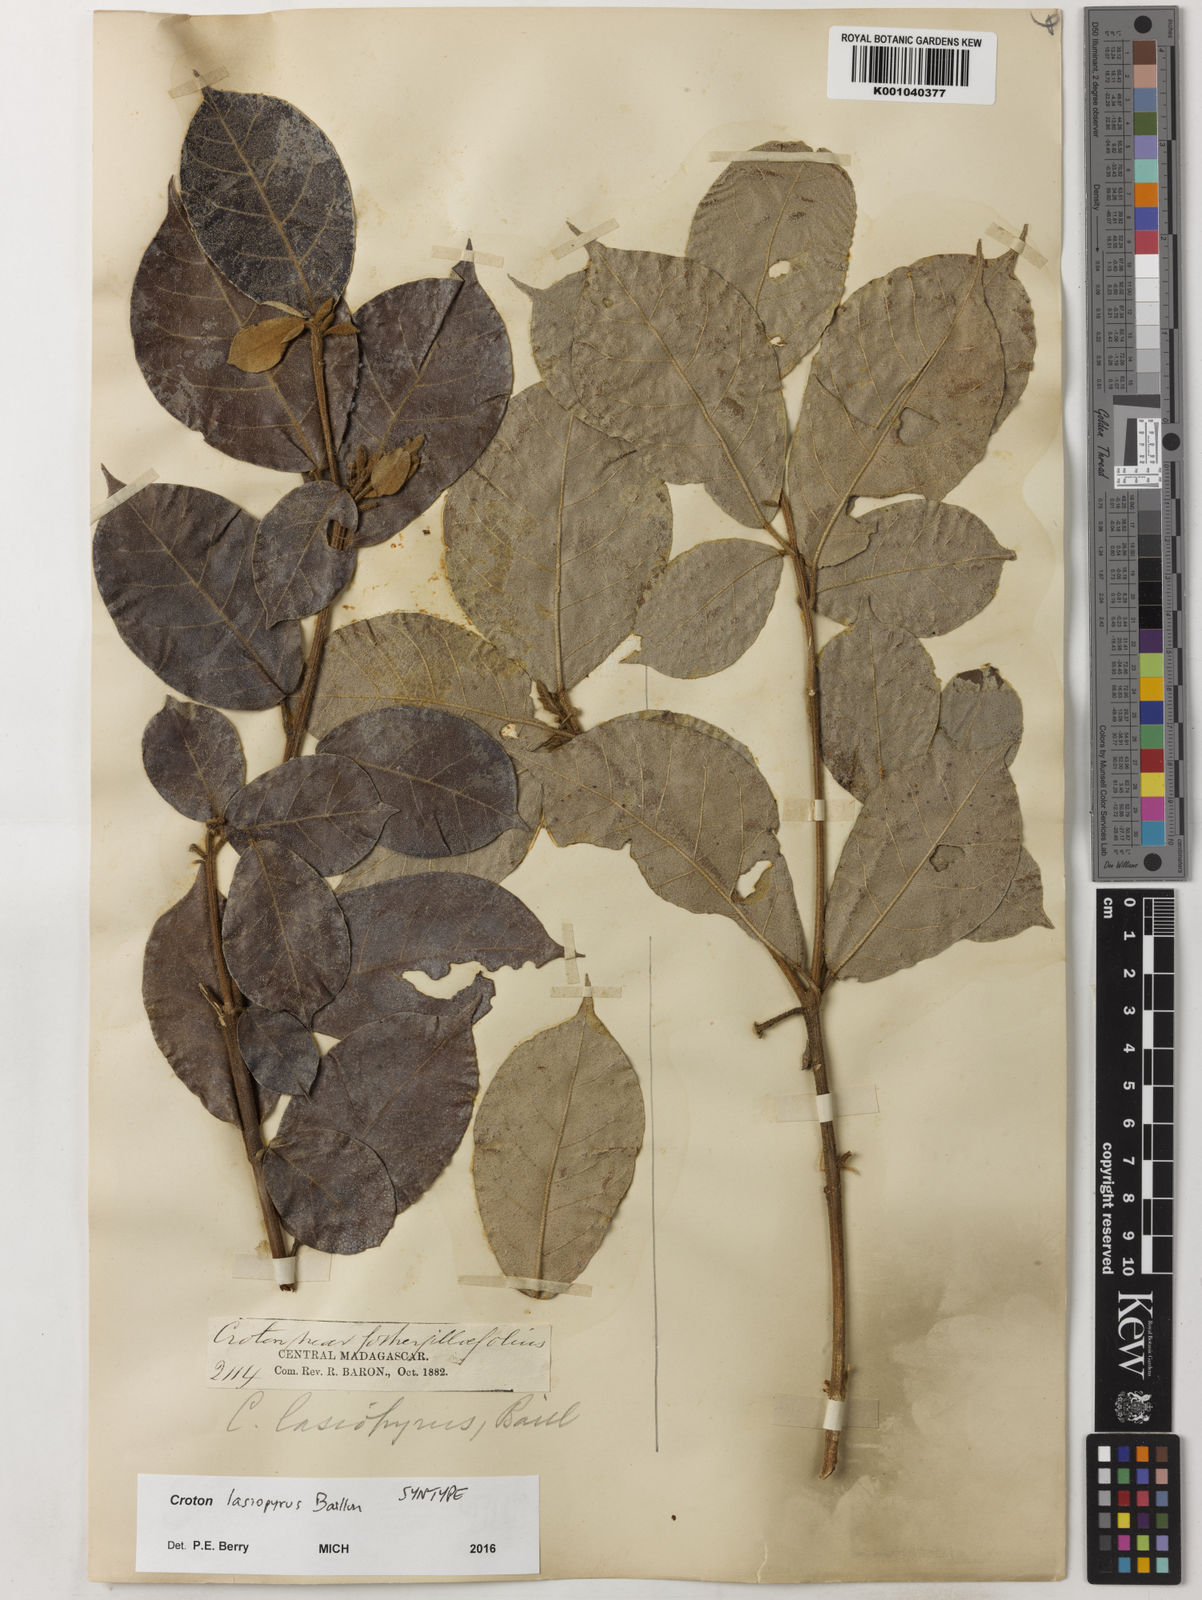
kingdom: Plantae
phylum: Tracheophyta
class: Magnoliopsida
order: Malpighiales
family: Euphorbiaceae
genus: Croton
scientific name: Croton lasiopyrus
